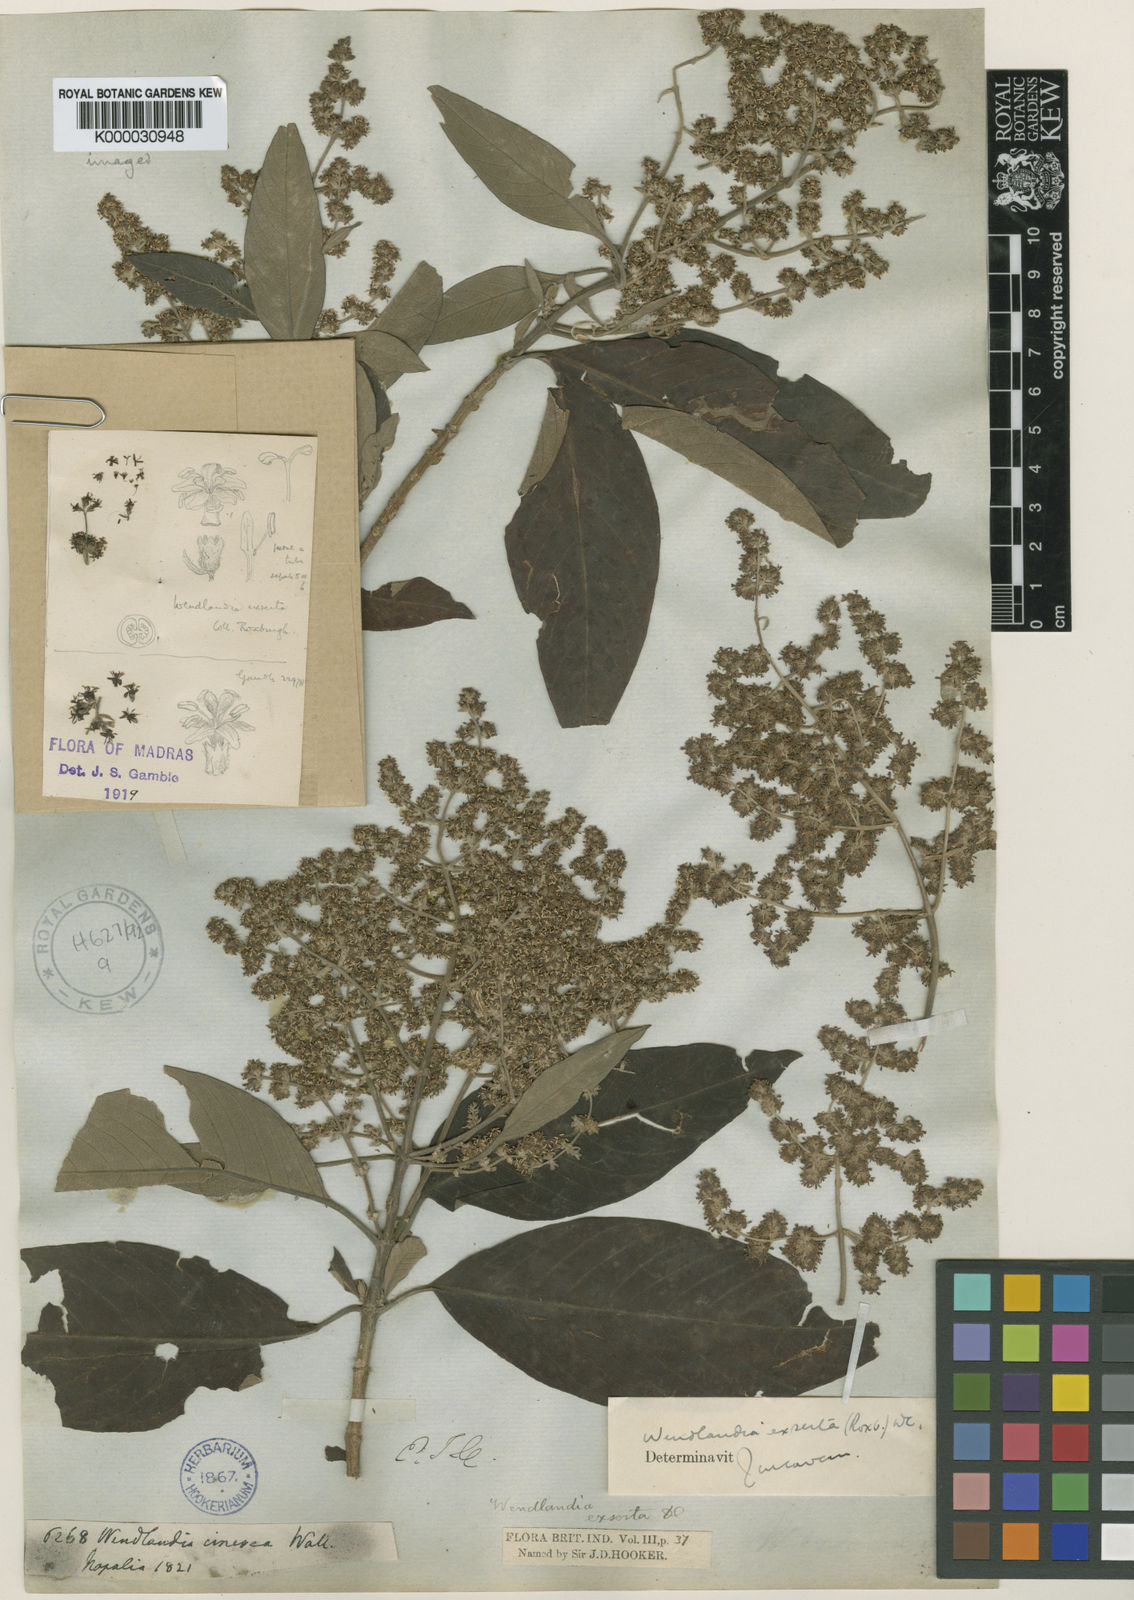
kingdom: Plantae
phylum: Tracheophyta
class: Magnoliopsida
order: Gentianales
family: Rubiaceae
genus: Wendlandia
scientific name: Wendlandia heynei
